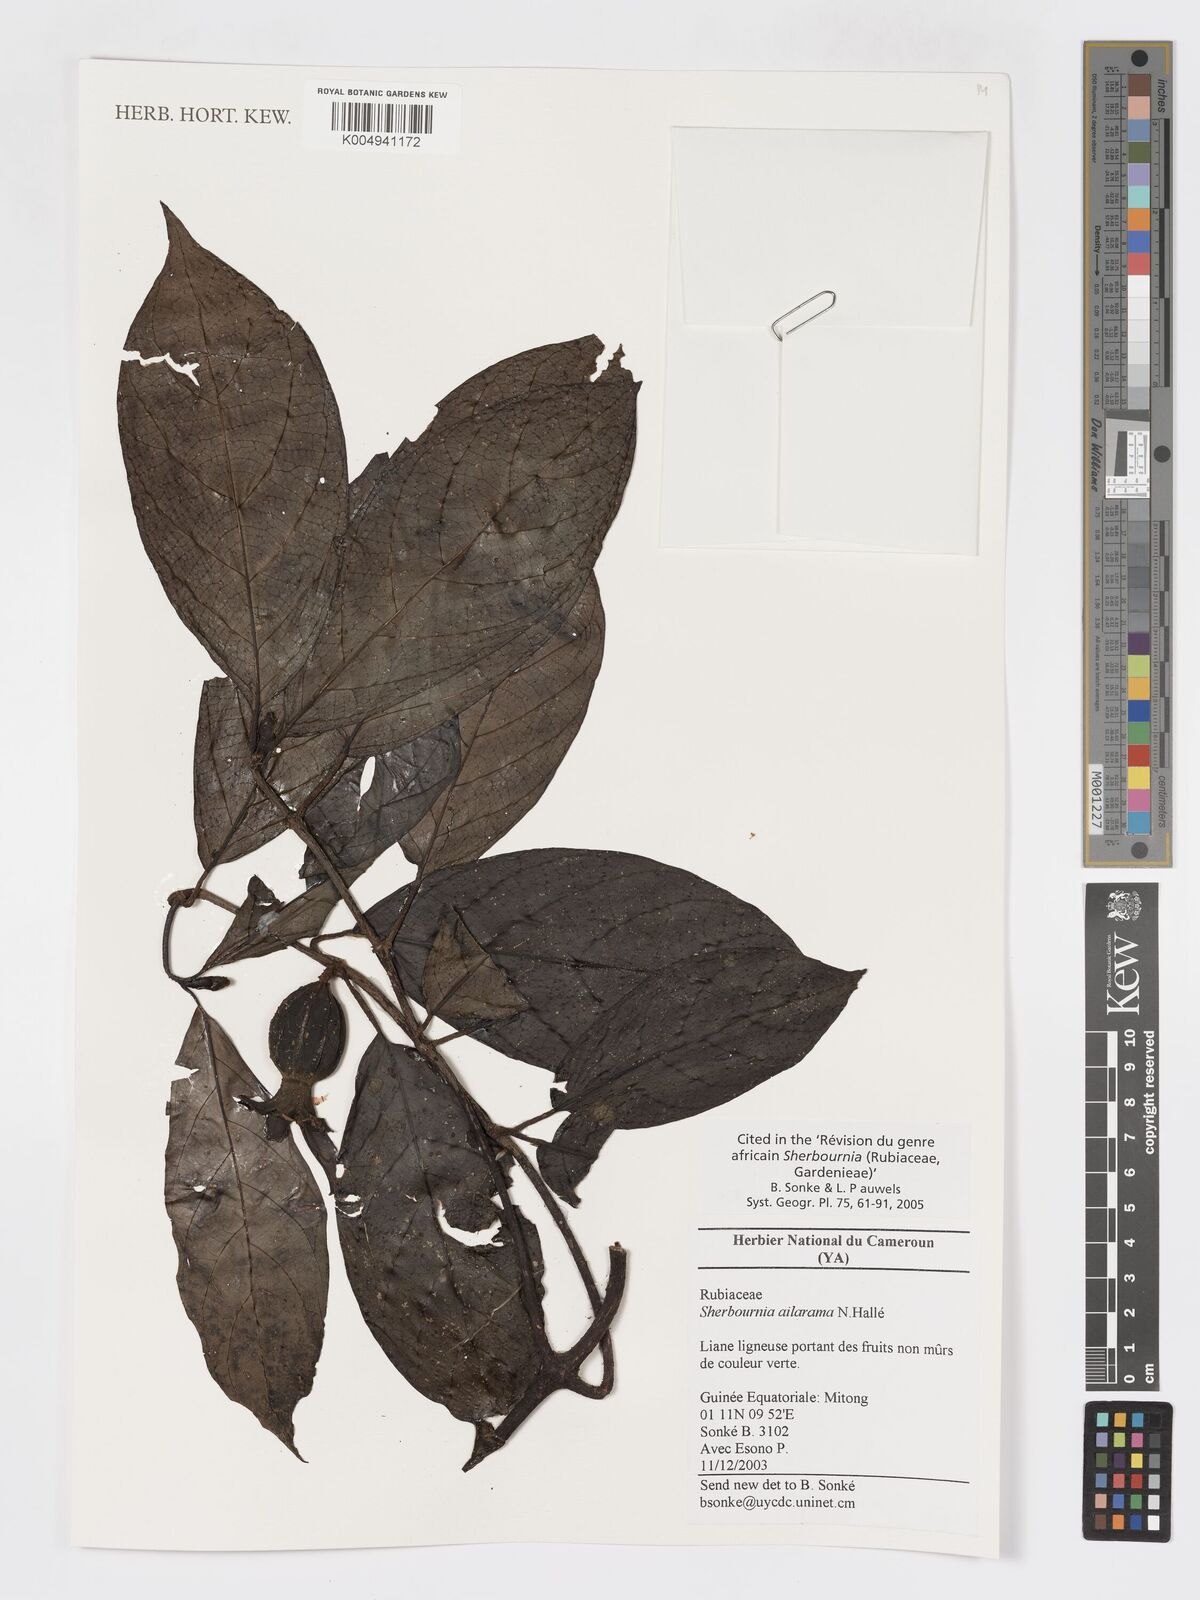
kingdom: Plantae
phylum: Tracheophyta
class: Magnoliopsida
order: Gentianales
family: Rubiaceae
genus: Sherbournia
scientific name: Sherbournia ailarama
